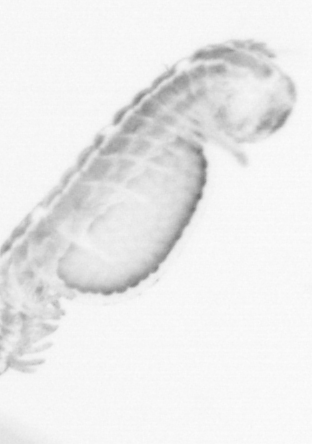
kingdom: Animalia
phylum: Annelida
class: Polychaeta
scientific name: Polychaeta
